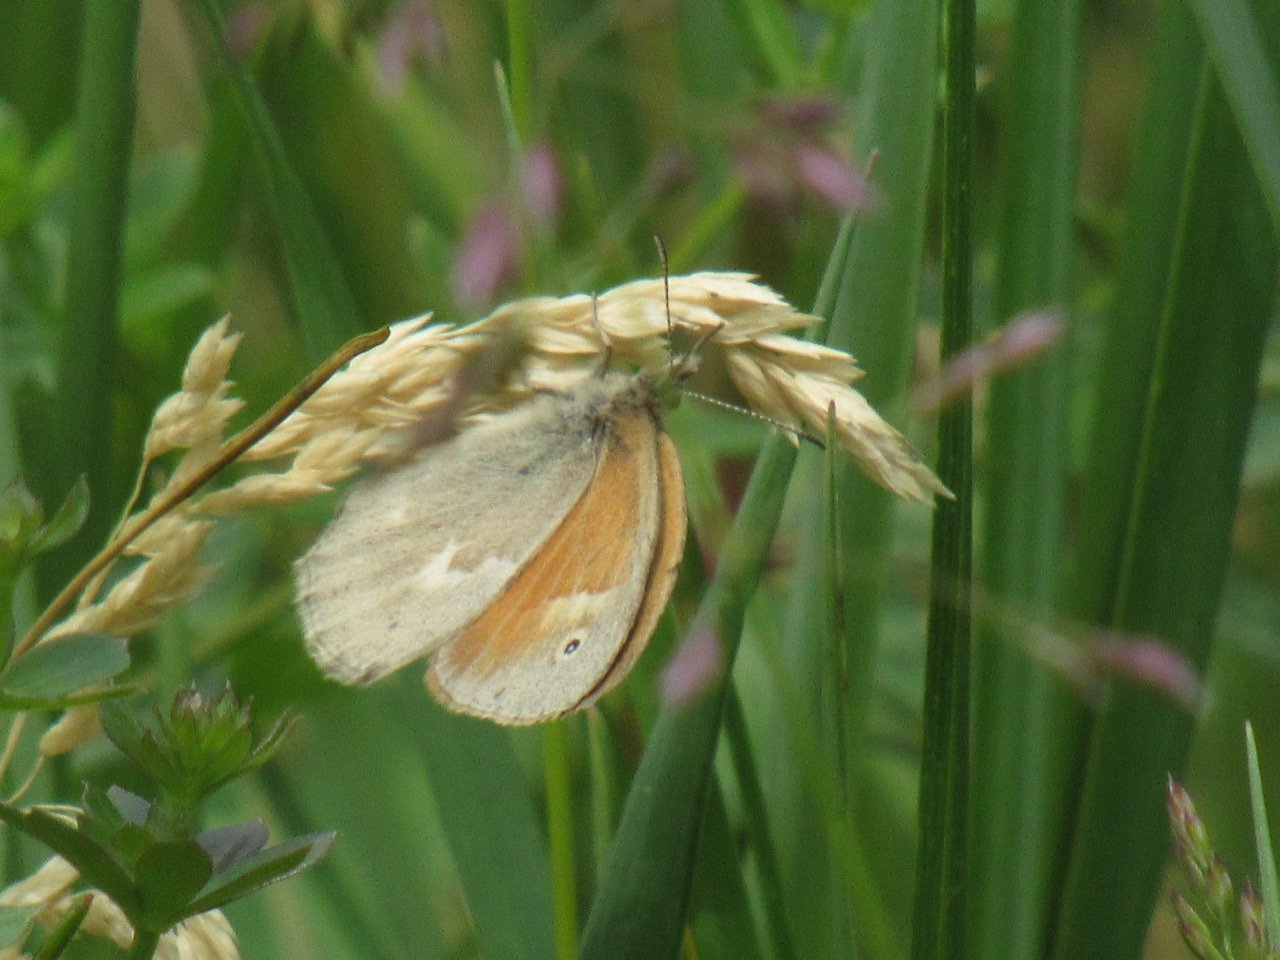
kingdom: Animalia
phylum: Arthropoda
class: Insecta
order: Lepidoptera
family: Nymphalidae
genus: Coenonympha
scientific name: Coenonympha tullia
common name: Large Heath
